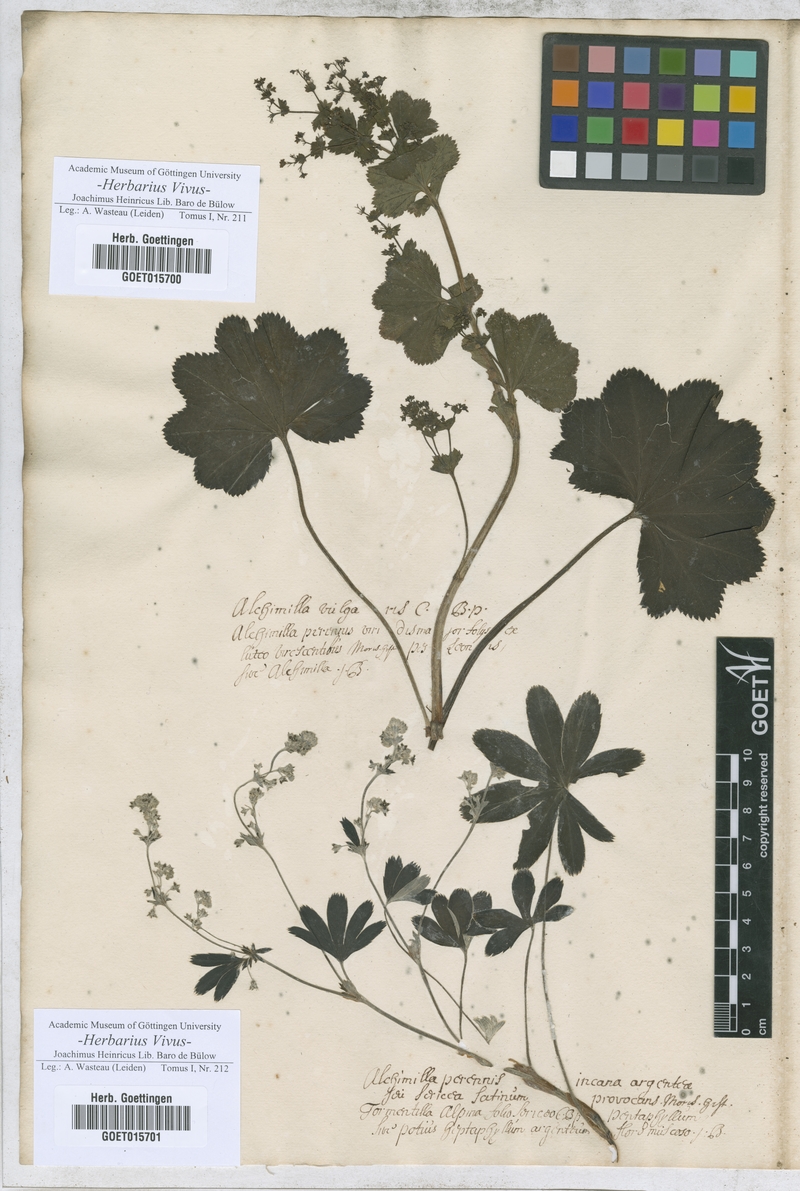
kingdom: Plantae
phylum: Tracheophyta
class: Magnoliopsida
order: Rosales
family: Rosaceae
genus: Alchemilla
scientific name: Alchemilla vulgaris
